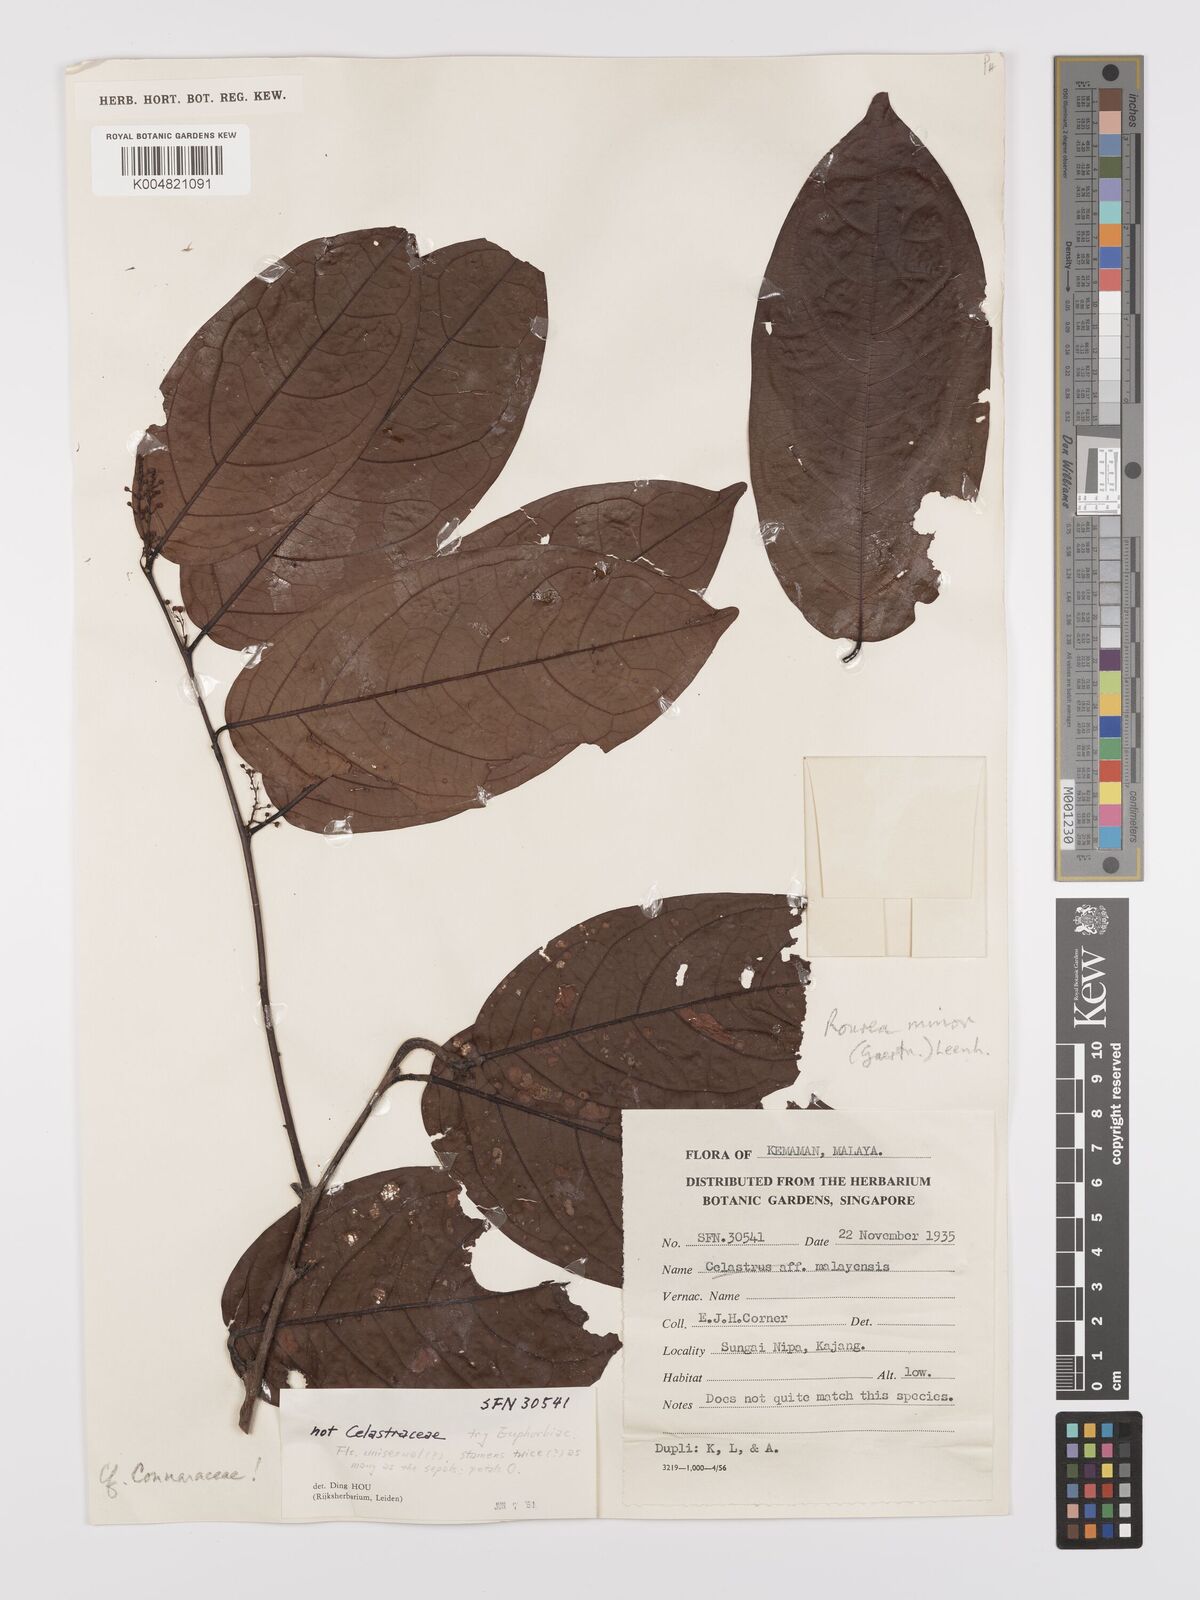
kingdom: Plantae
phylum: Tracheophyta
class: Magnoliopsida
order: Oxalidales
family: Connaraceae
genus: Rourea
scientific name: Rourea minor
